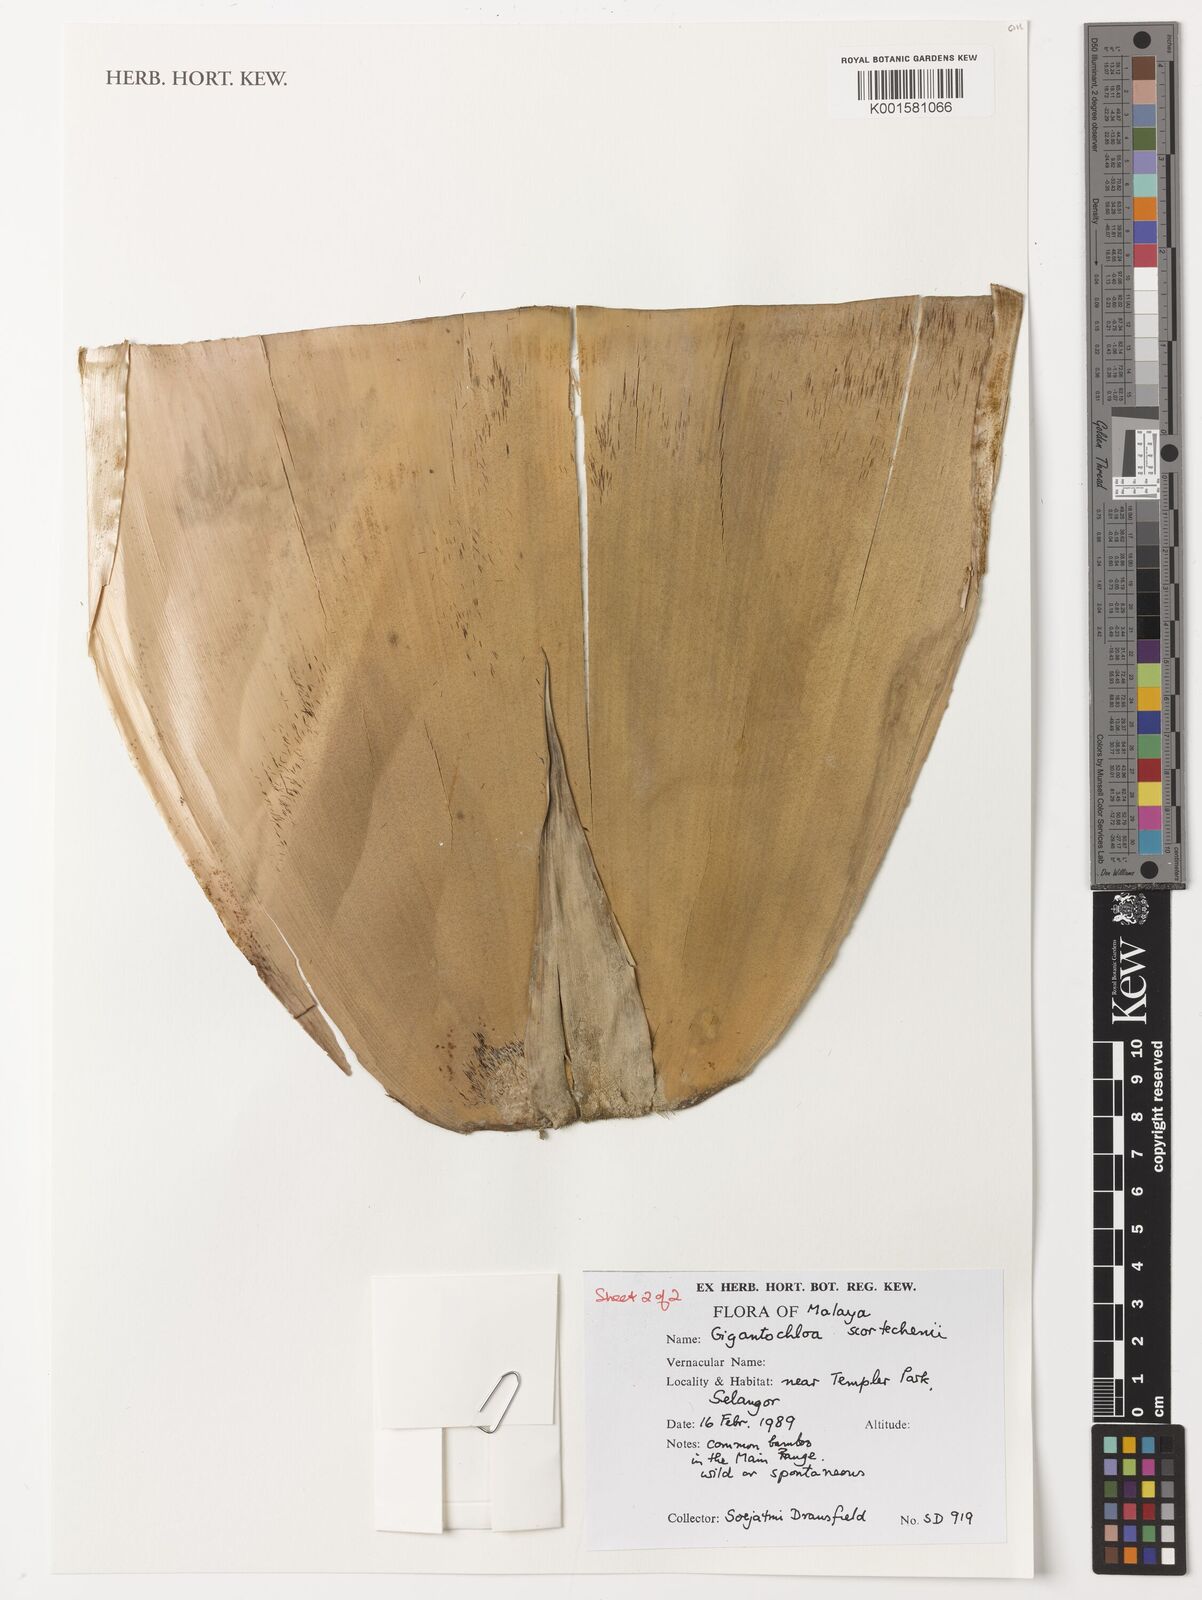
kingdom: Plantae
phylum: Tracheophyta
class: Liliopsida
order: Poales
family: Poaceae
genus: Gigantochloa
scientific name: Gigantochloa scortechinii
